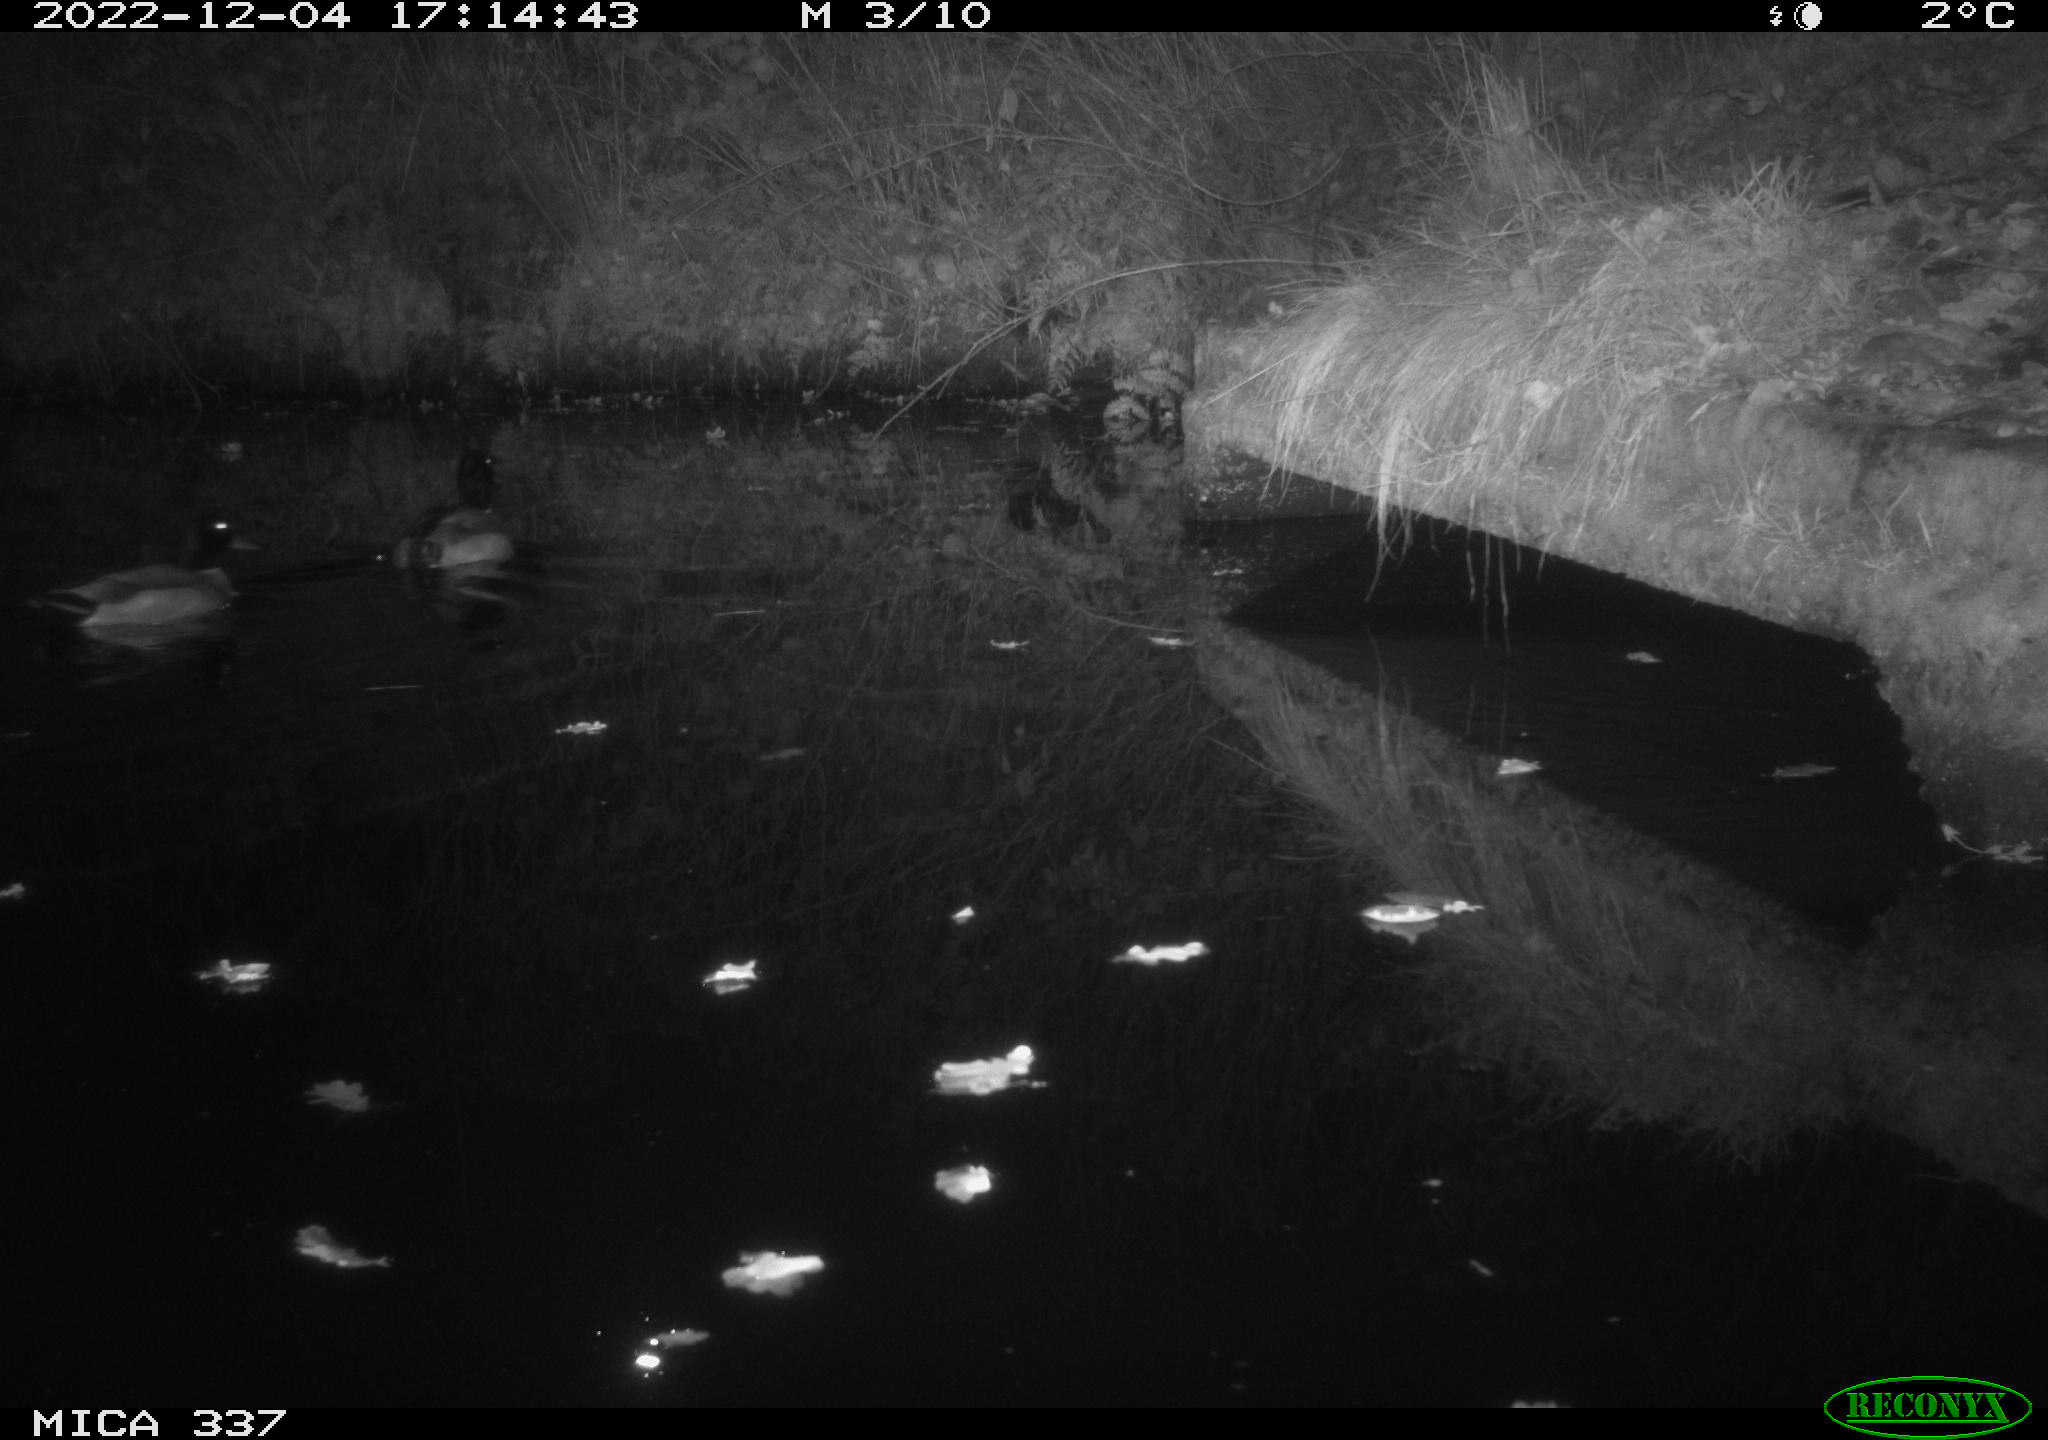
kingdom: Animalia
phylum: Chordata
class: Aves
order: Anseriformes
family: Anatidae
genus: Anas
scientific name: Anas platyrhynchos
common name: Mallard
